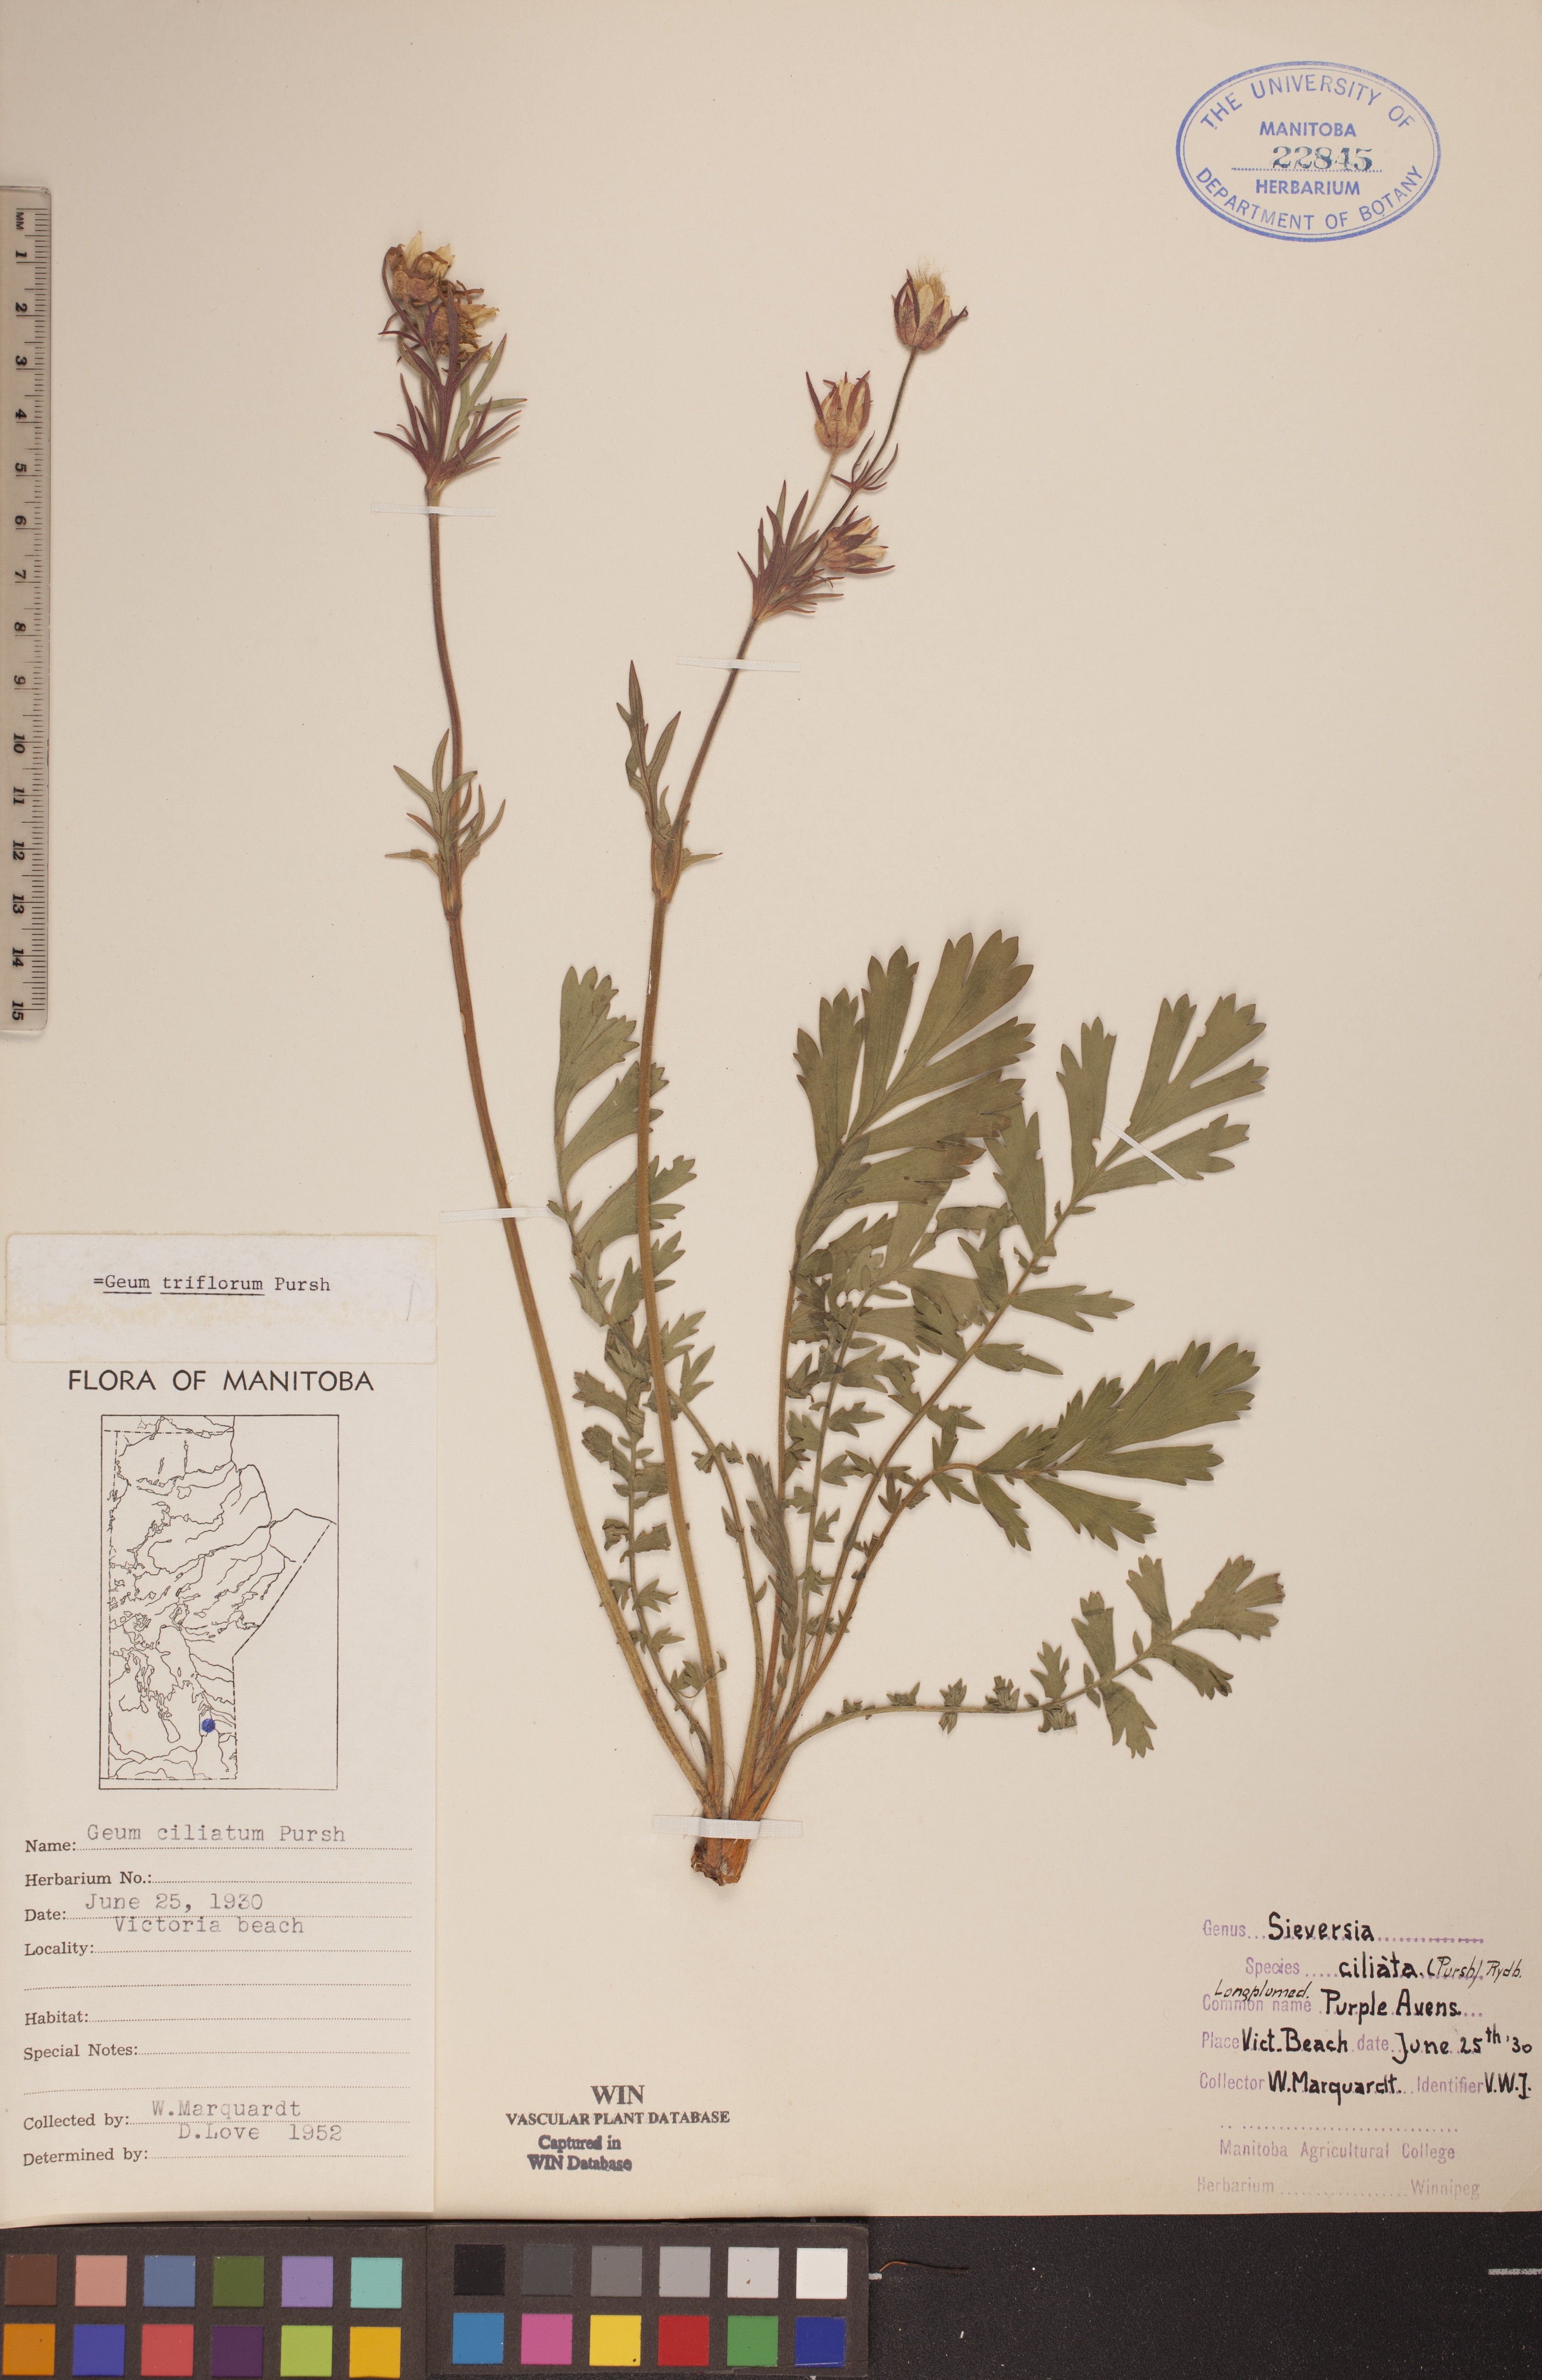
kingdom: Plantae
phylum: Tracheophyta
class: Magnoliopsida
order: Rosales
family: Rosaceae
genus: Geum
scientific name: Geum triflorum
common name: Old man's whiskers
